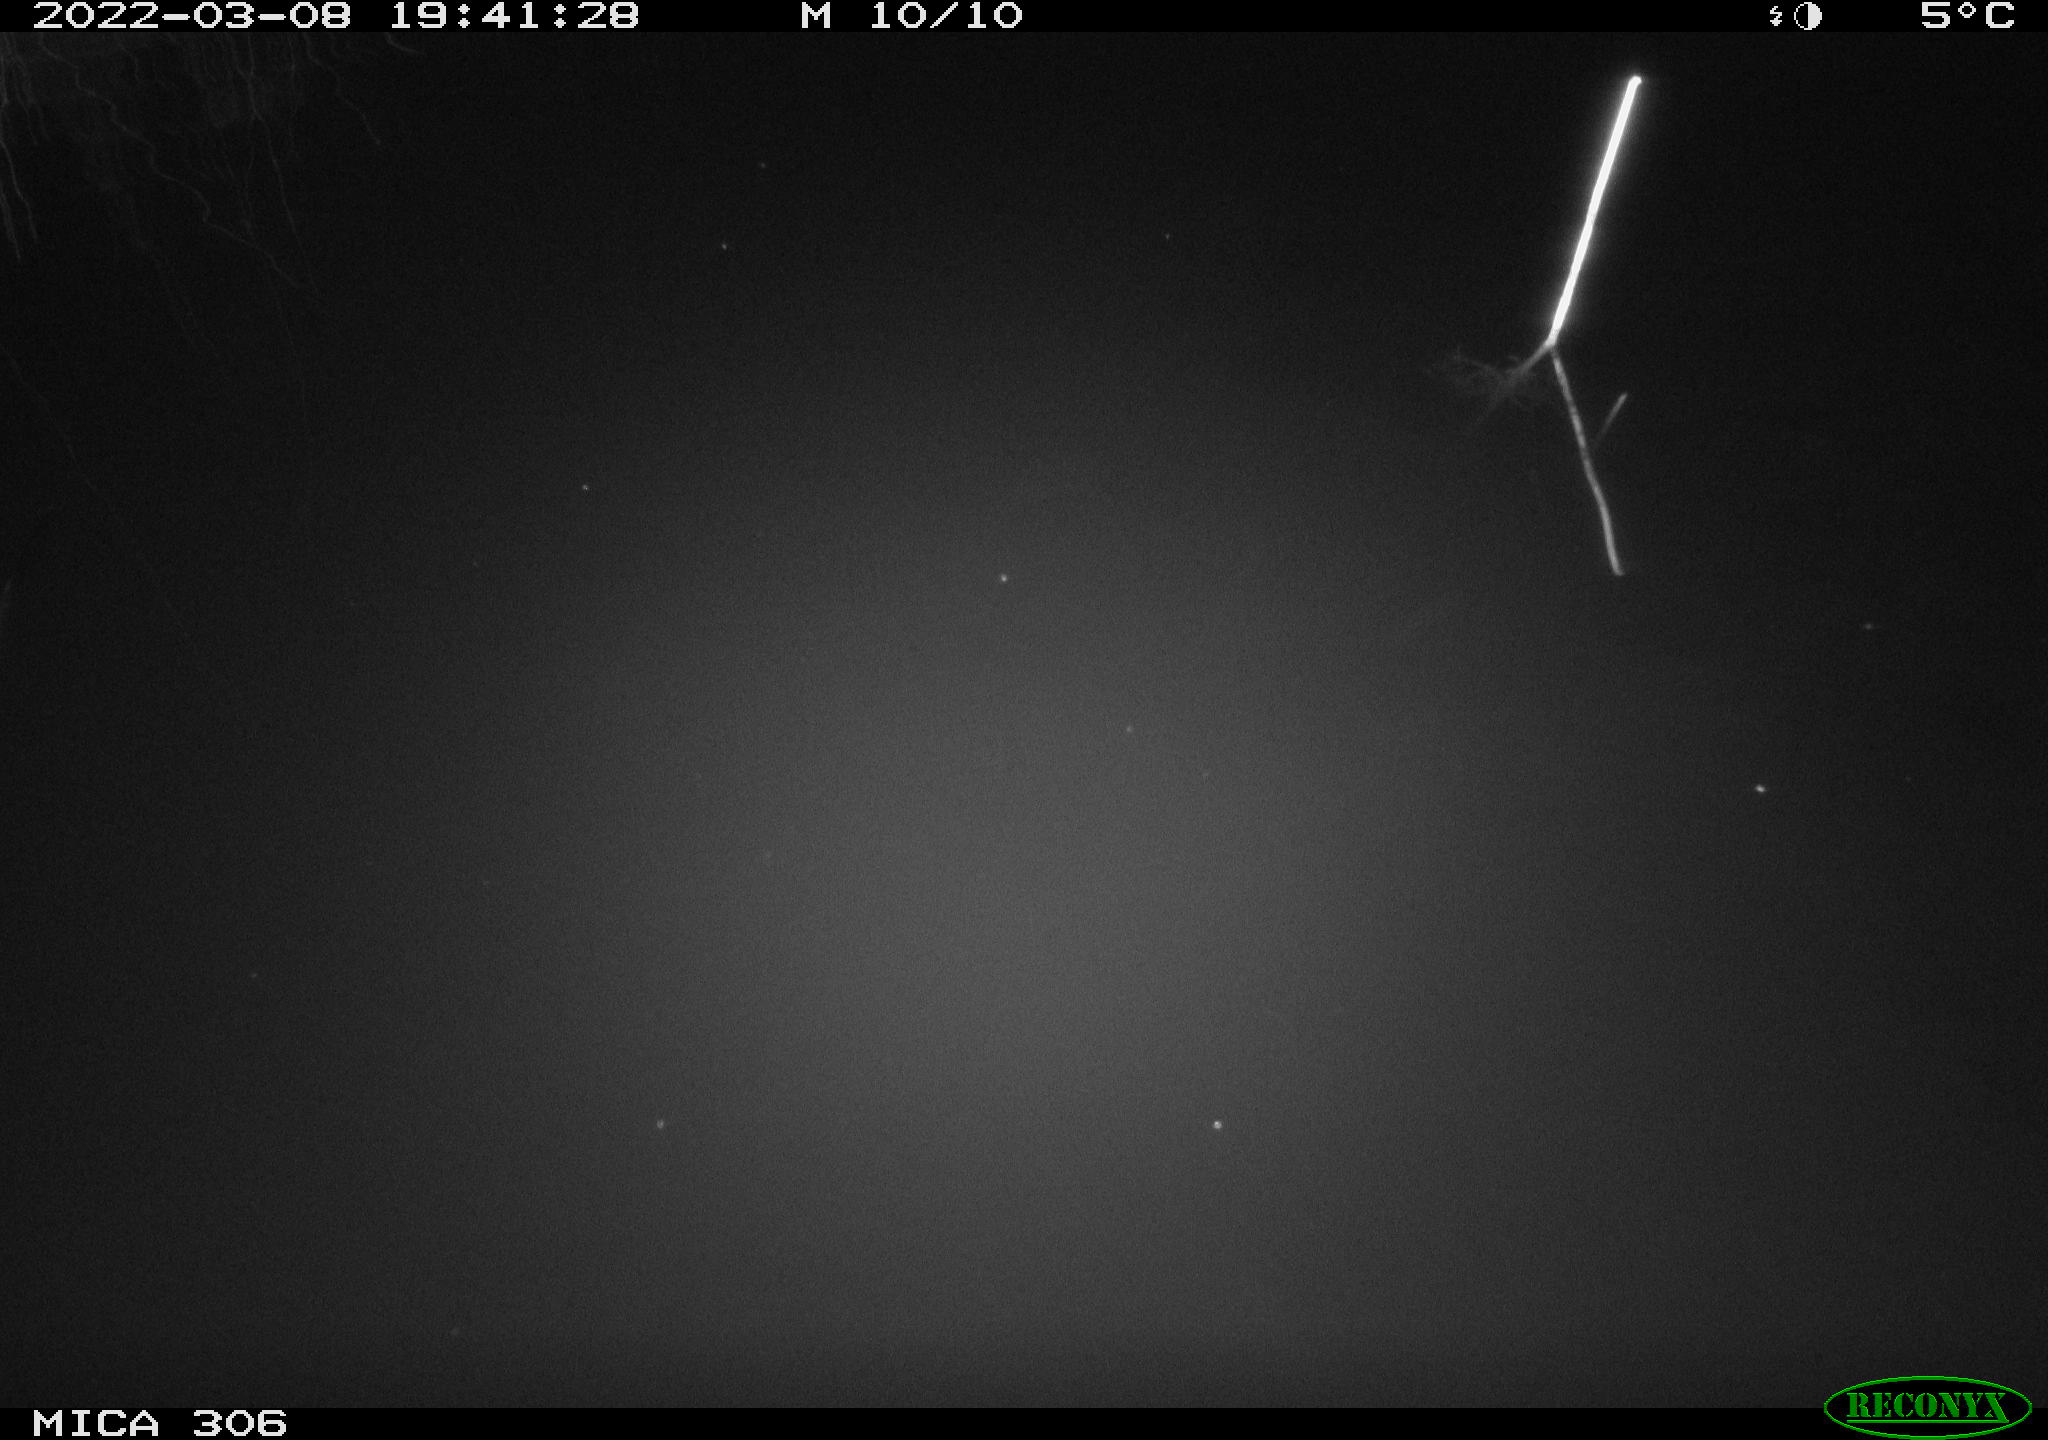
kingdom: Animalia
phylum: Chordata
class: Aves
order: Anseriformes
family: Anatidae
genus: Anas
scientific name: Anas platyrhynchos
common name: Mallard
